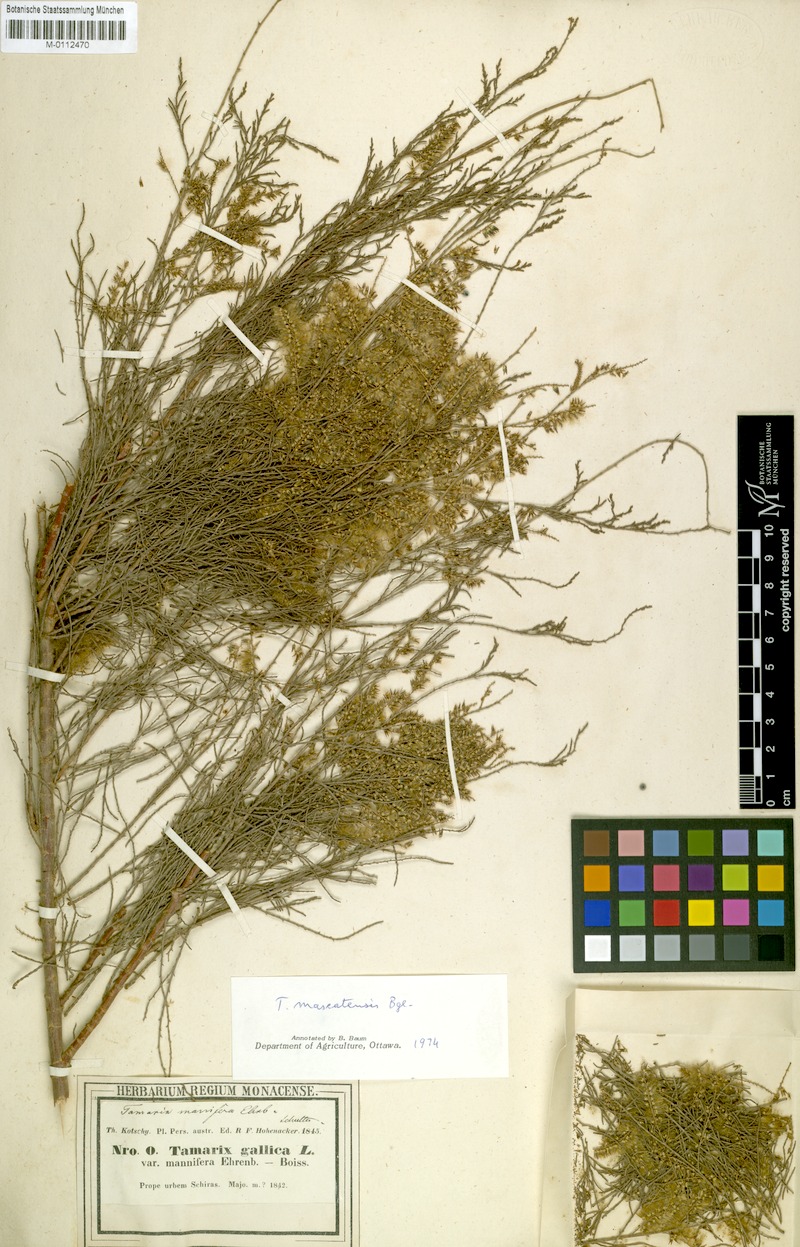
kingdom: Plantae
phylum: Tracheophyta
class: Magnoliopsida
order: Caryophyllales
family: Tamaricaceae
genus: Tamarix
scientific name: Tamarix mascatensis
